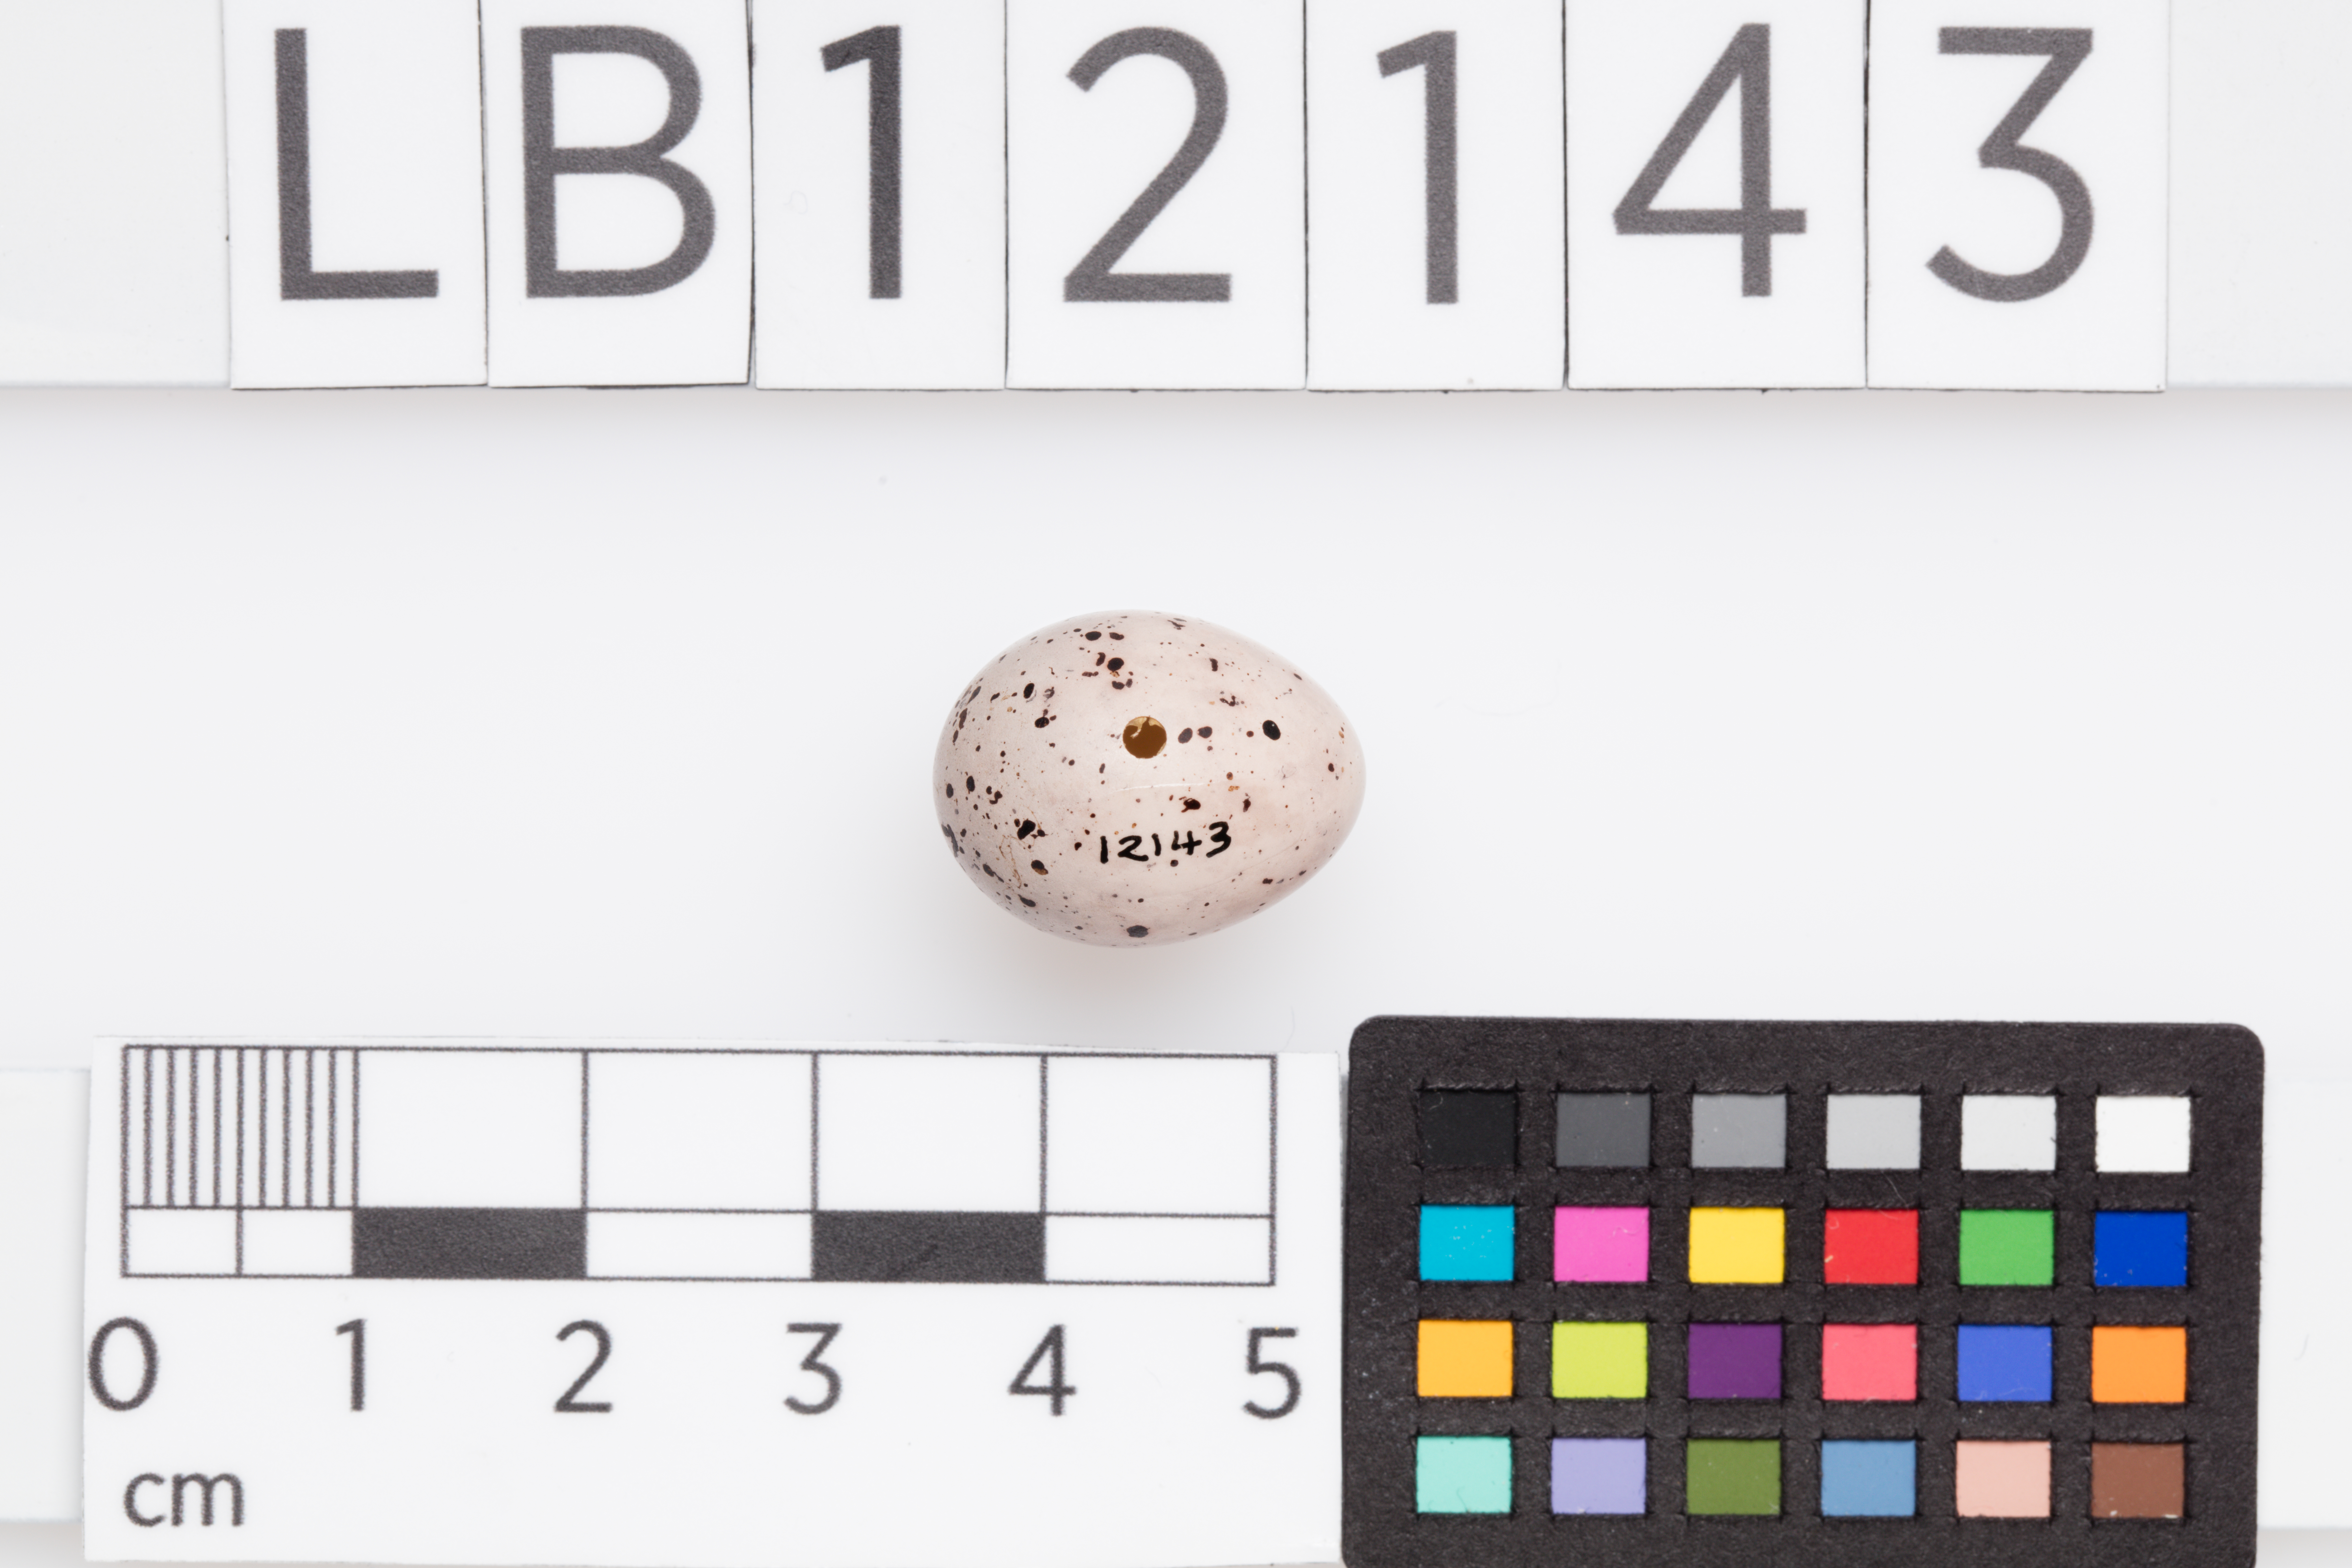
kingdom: Animalia
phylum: Chordata
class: Aves
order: Passeriformes
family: Acrocephalidae
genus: Hippolais
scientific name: Hippolais icterina
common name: Icterine warbler
